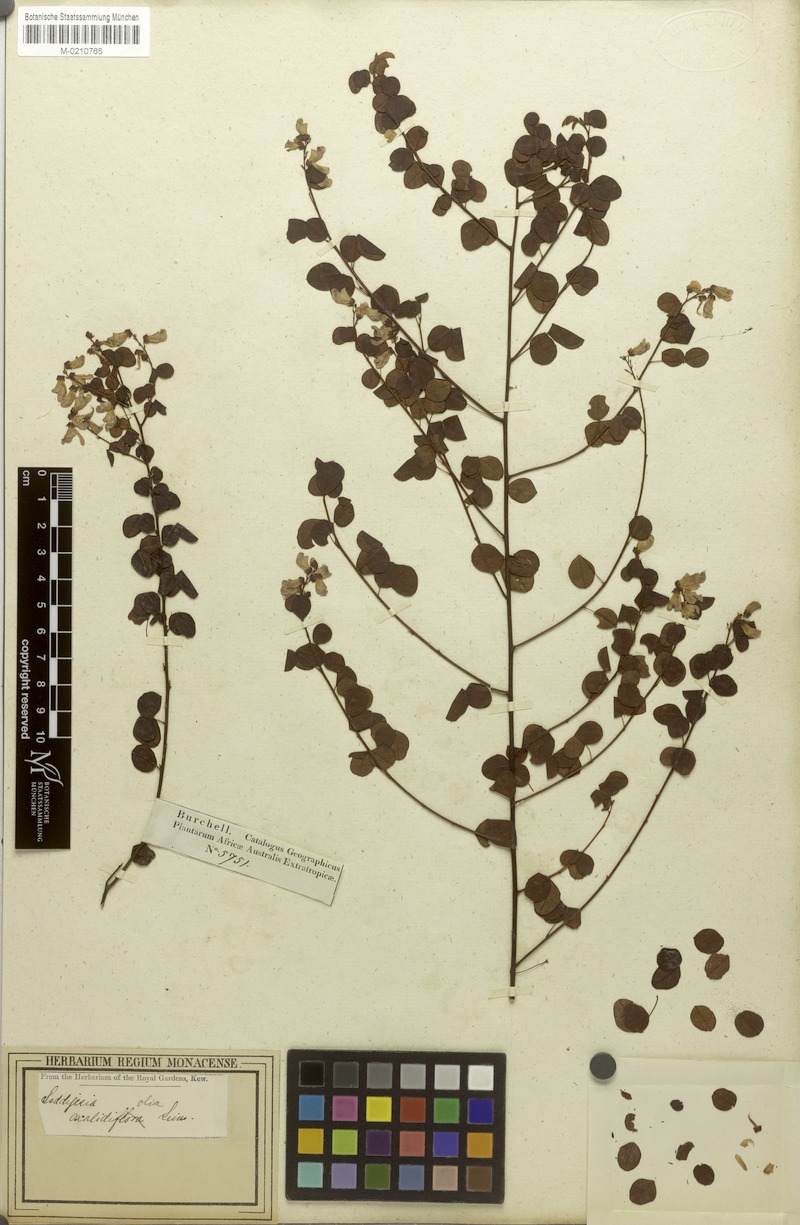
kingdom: Plantae
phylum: Tracheophyta
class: Magnoliopsida
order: Fabales
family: Fabaceae
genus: Hypocalyptus
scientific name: Hypocalyptus oxalidifolius
